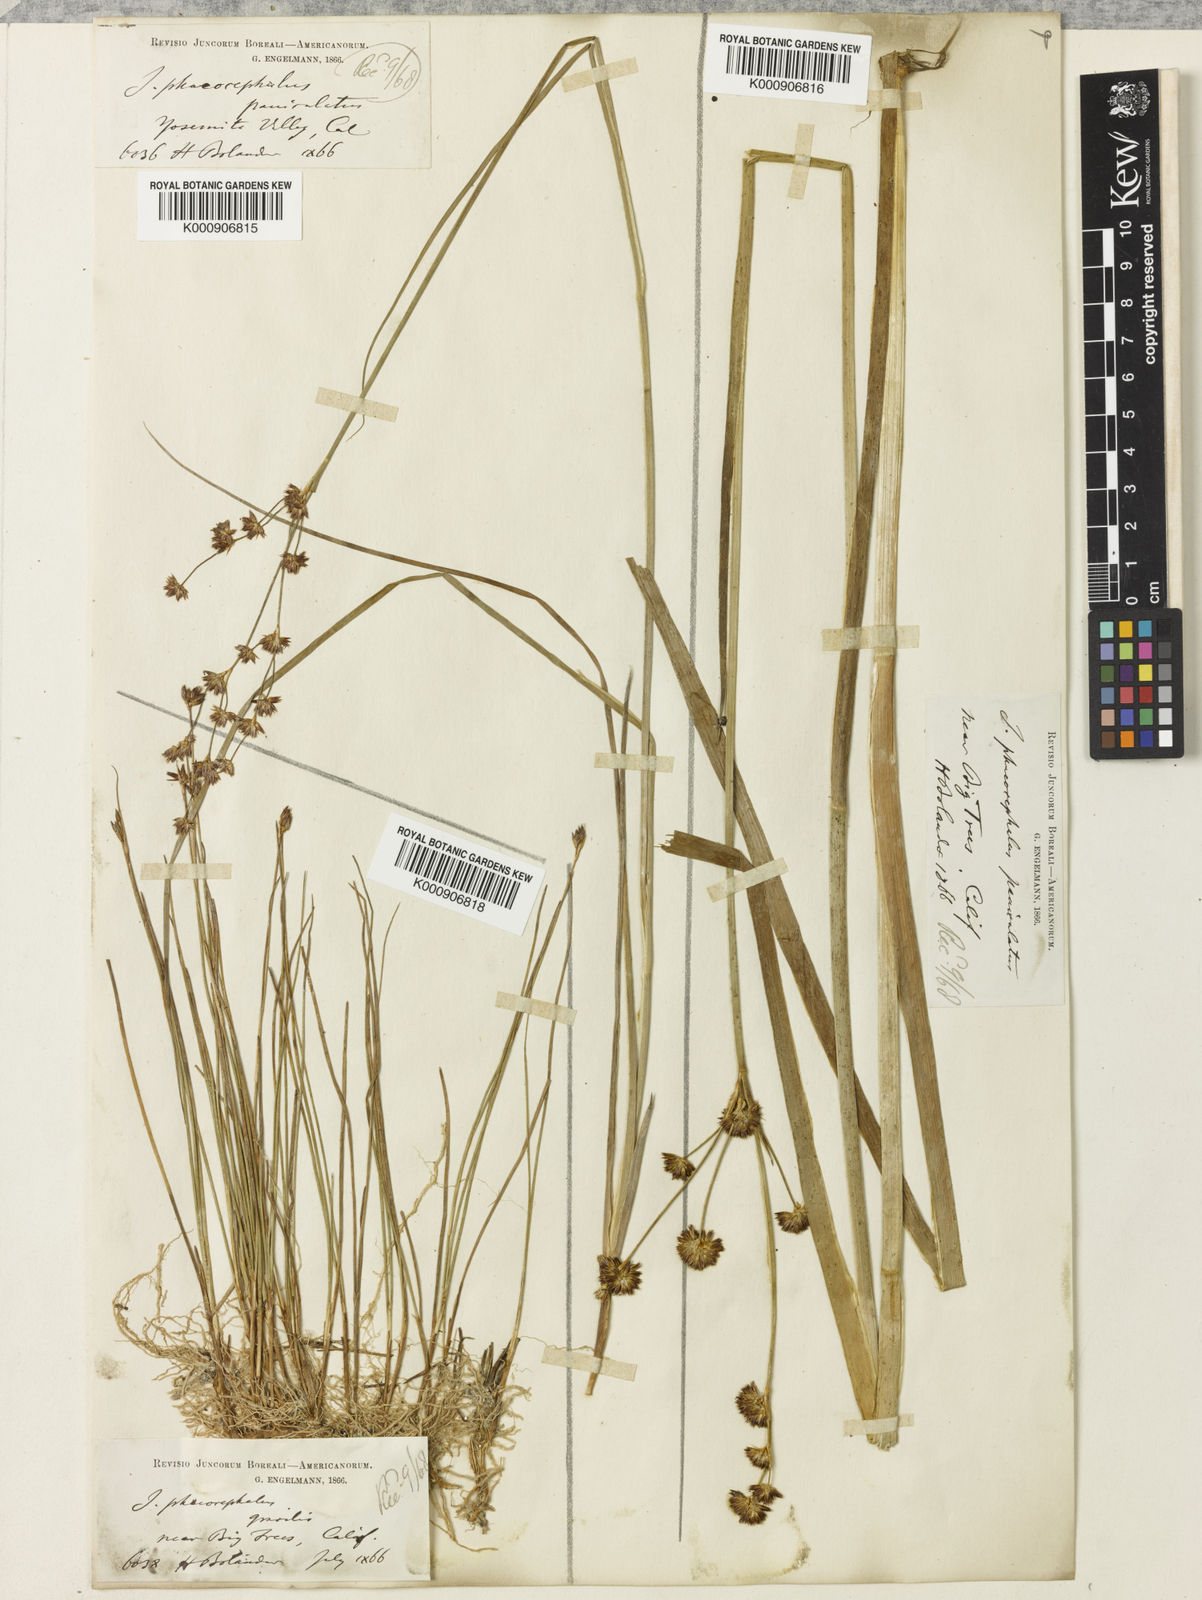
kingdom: Plantae
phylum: Tracheophyta
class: Liliopsida
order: Poales
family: Juncaceae
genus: Juncus
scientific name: Juncus phaeocephalus
